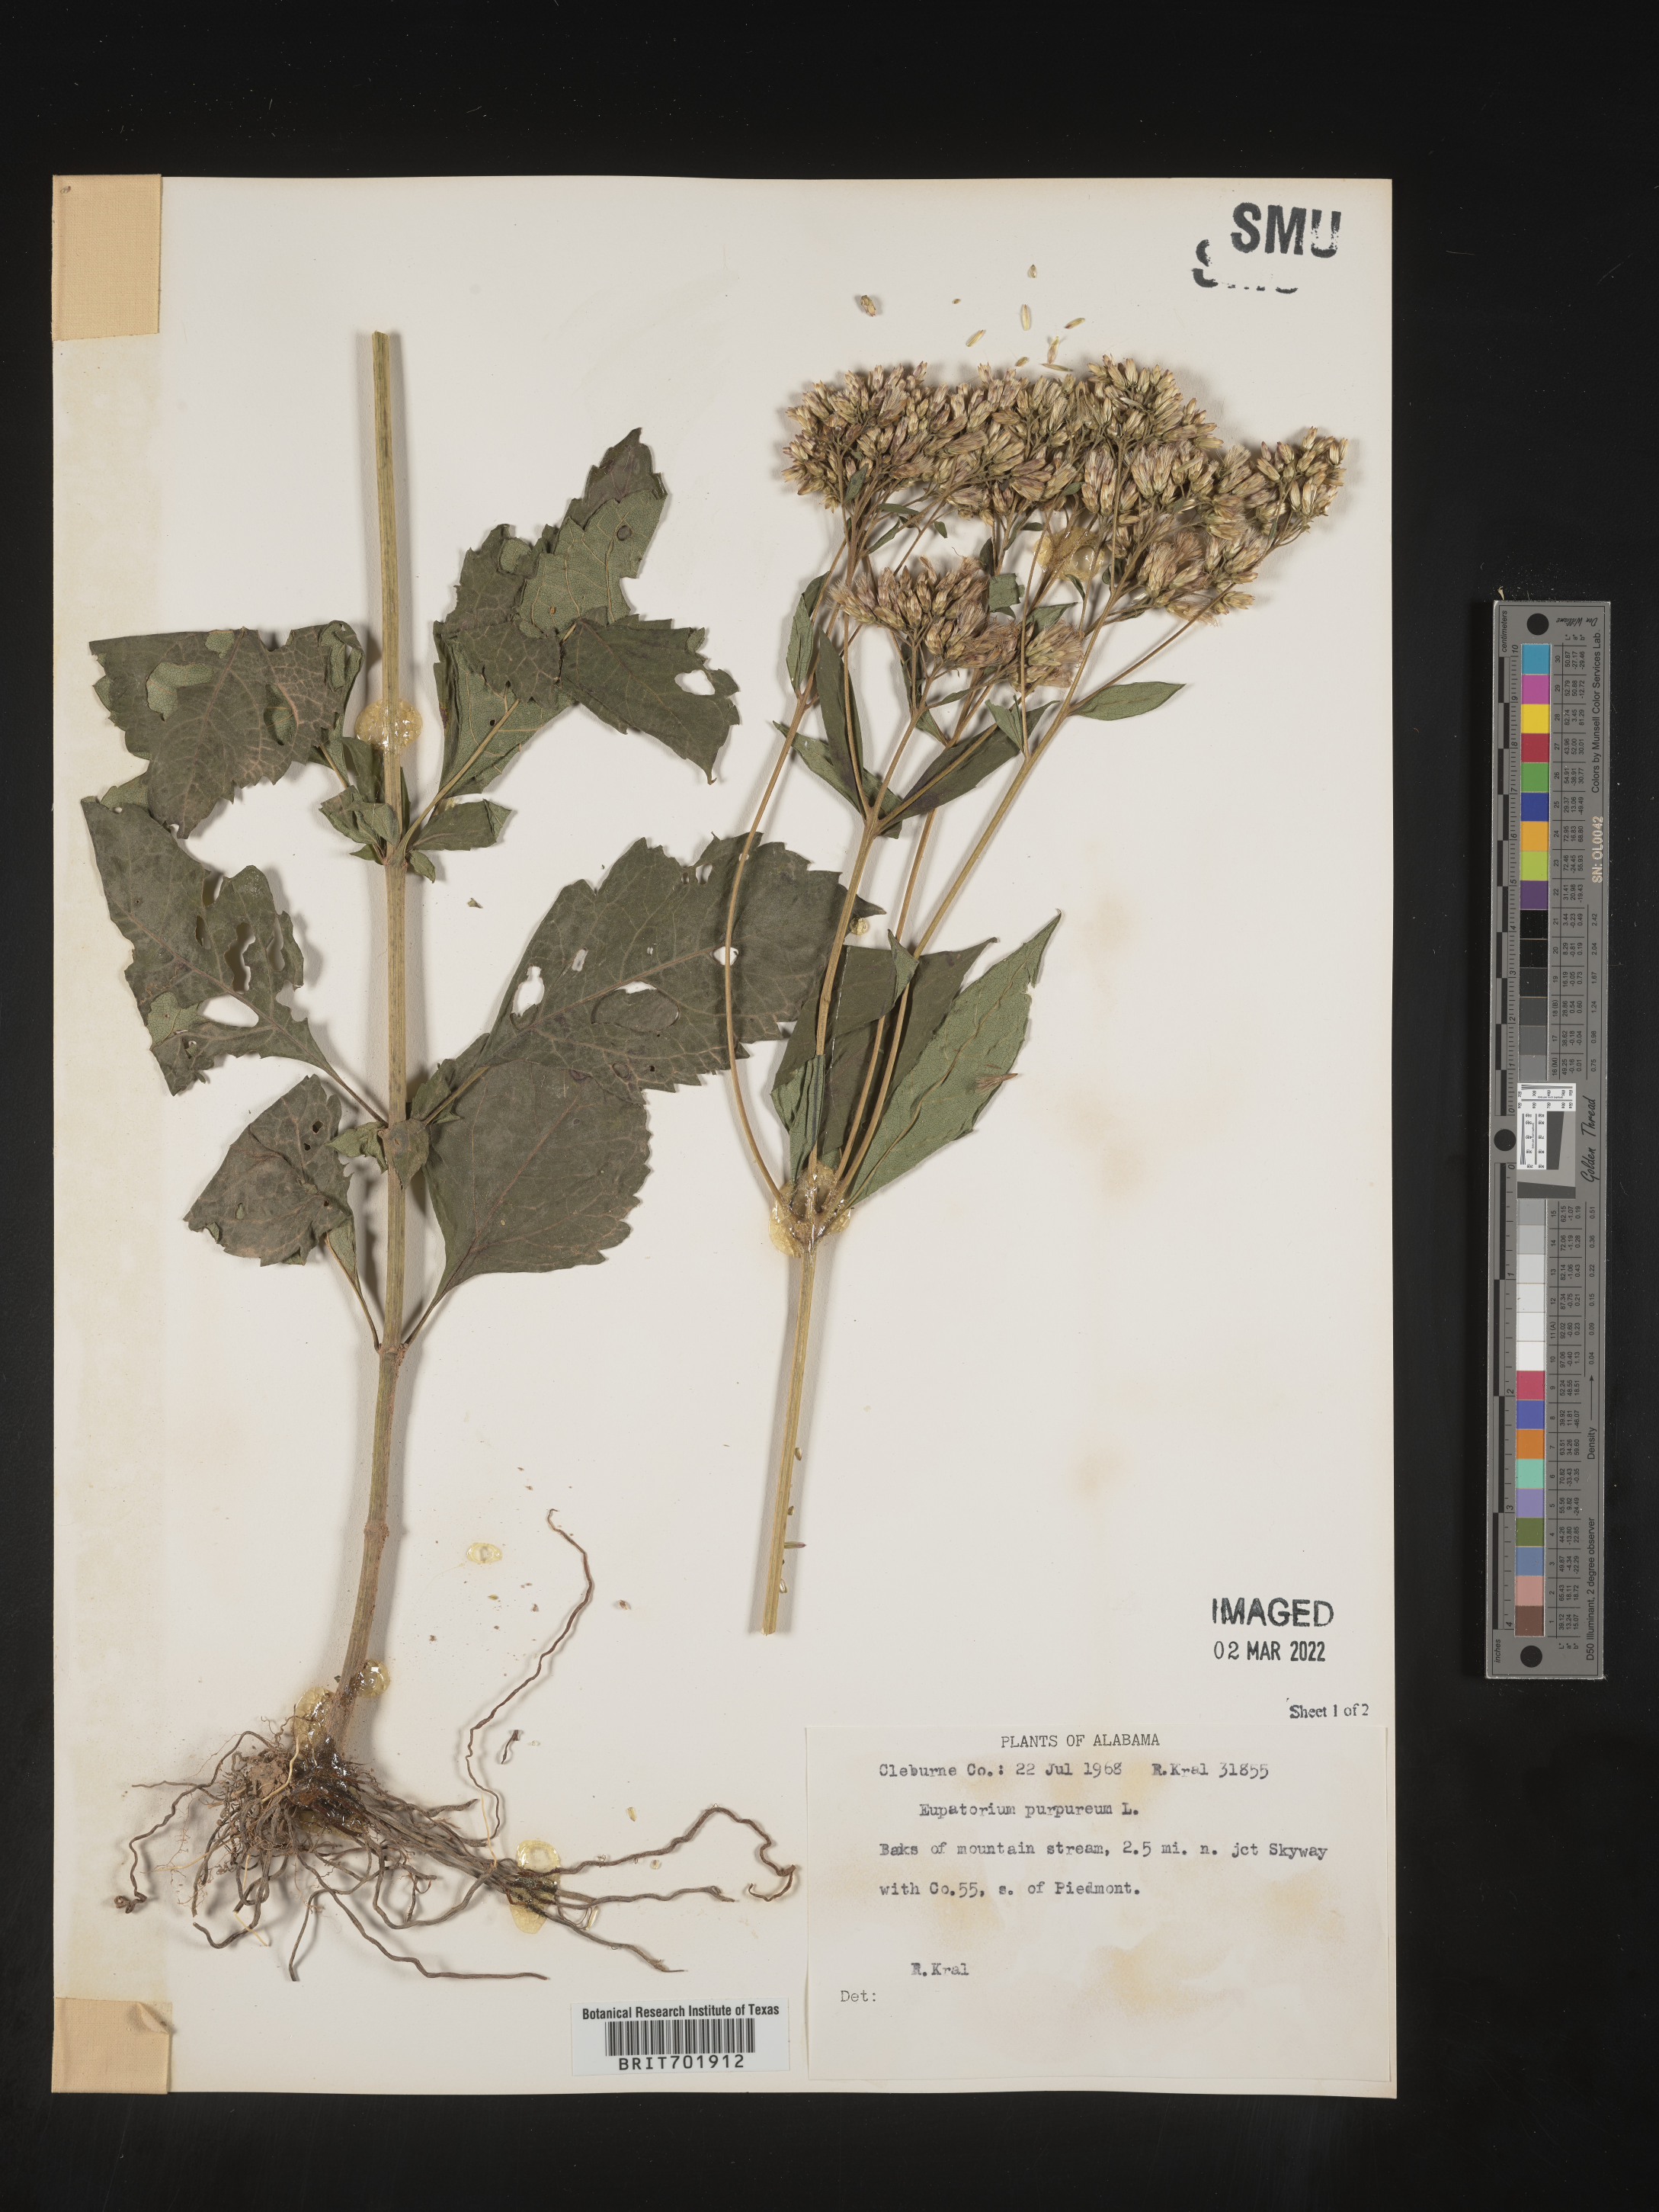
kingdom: Plantae
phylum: Tracheophyta
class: Magnoliopsida
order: Asterales
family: Asteraceae
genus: Eupatorium
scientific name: Eupatorium quaternum
